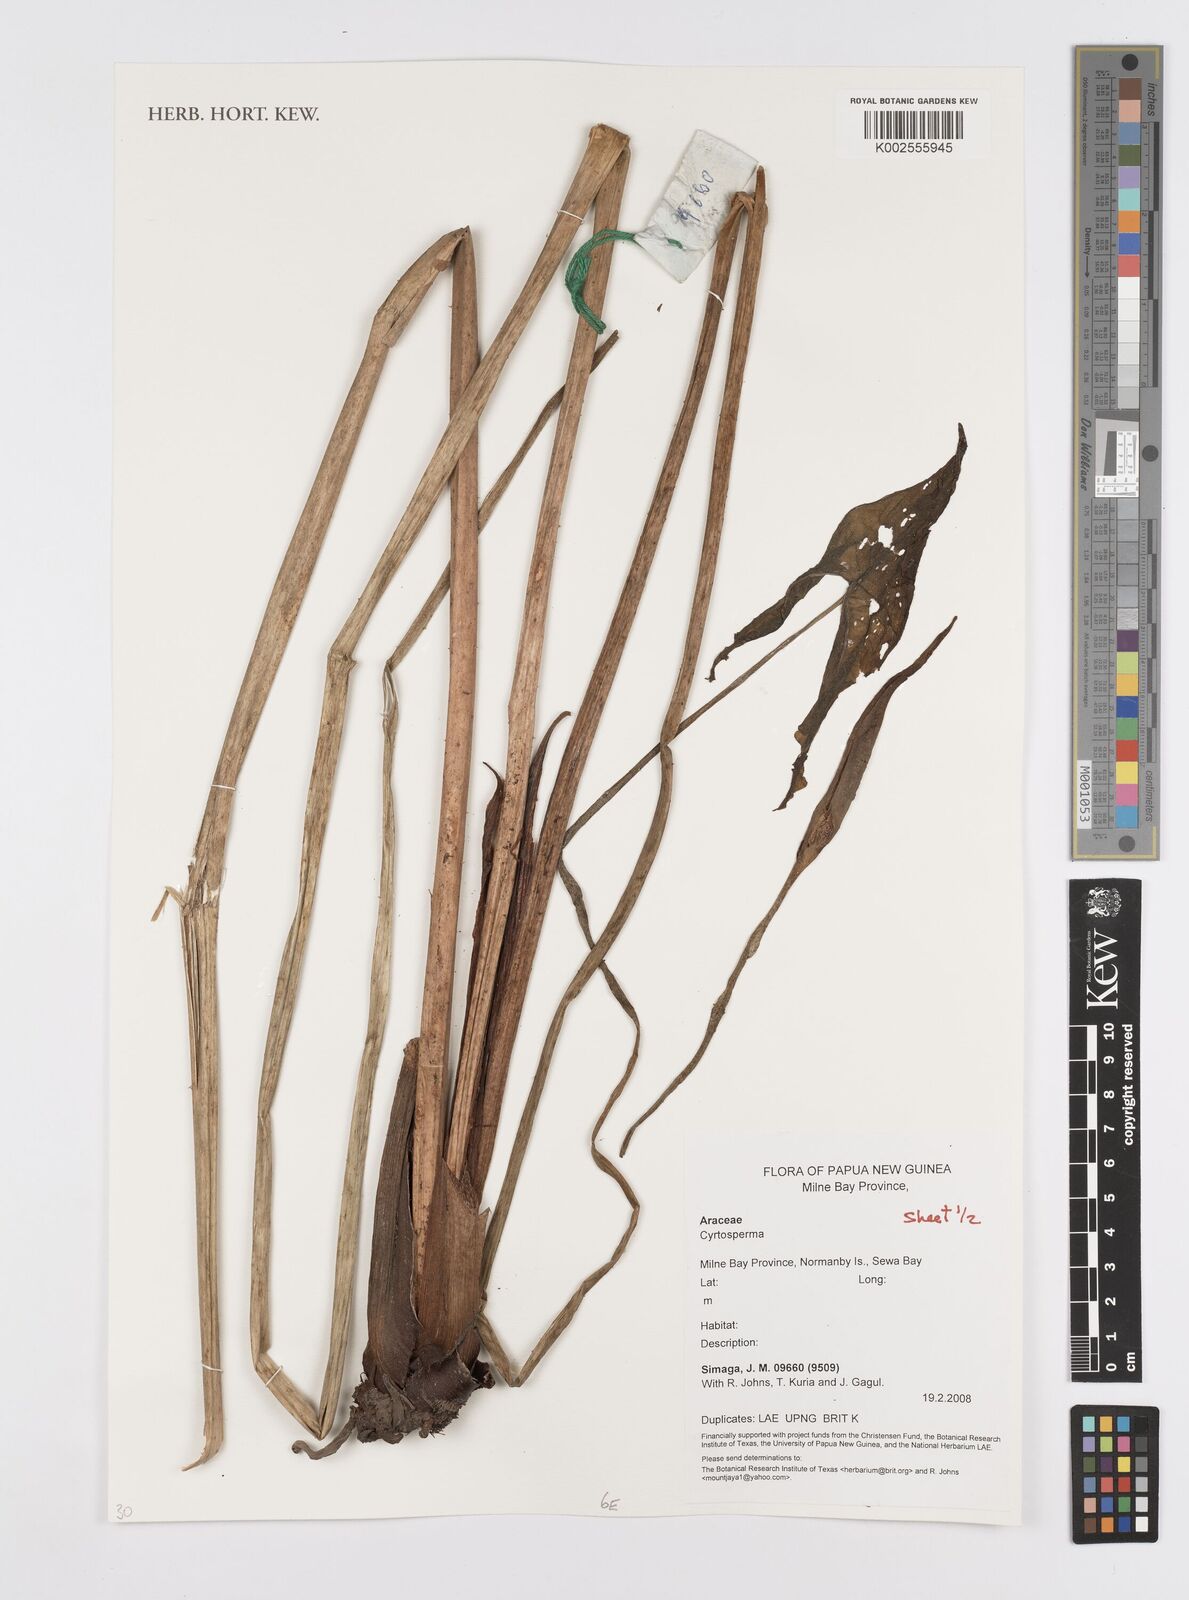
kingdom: Plantae
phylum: Tracheophyta
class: Liliopsida
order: Alismatales
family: Araceae
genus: Cyrtosperma
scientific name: Cyrtosperma
